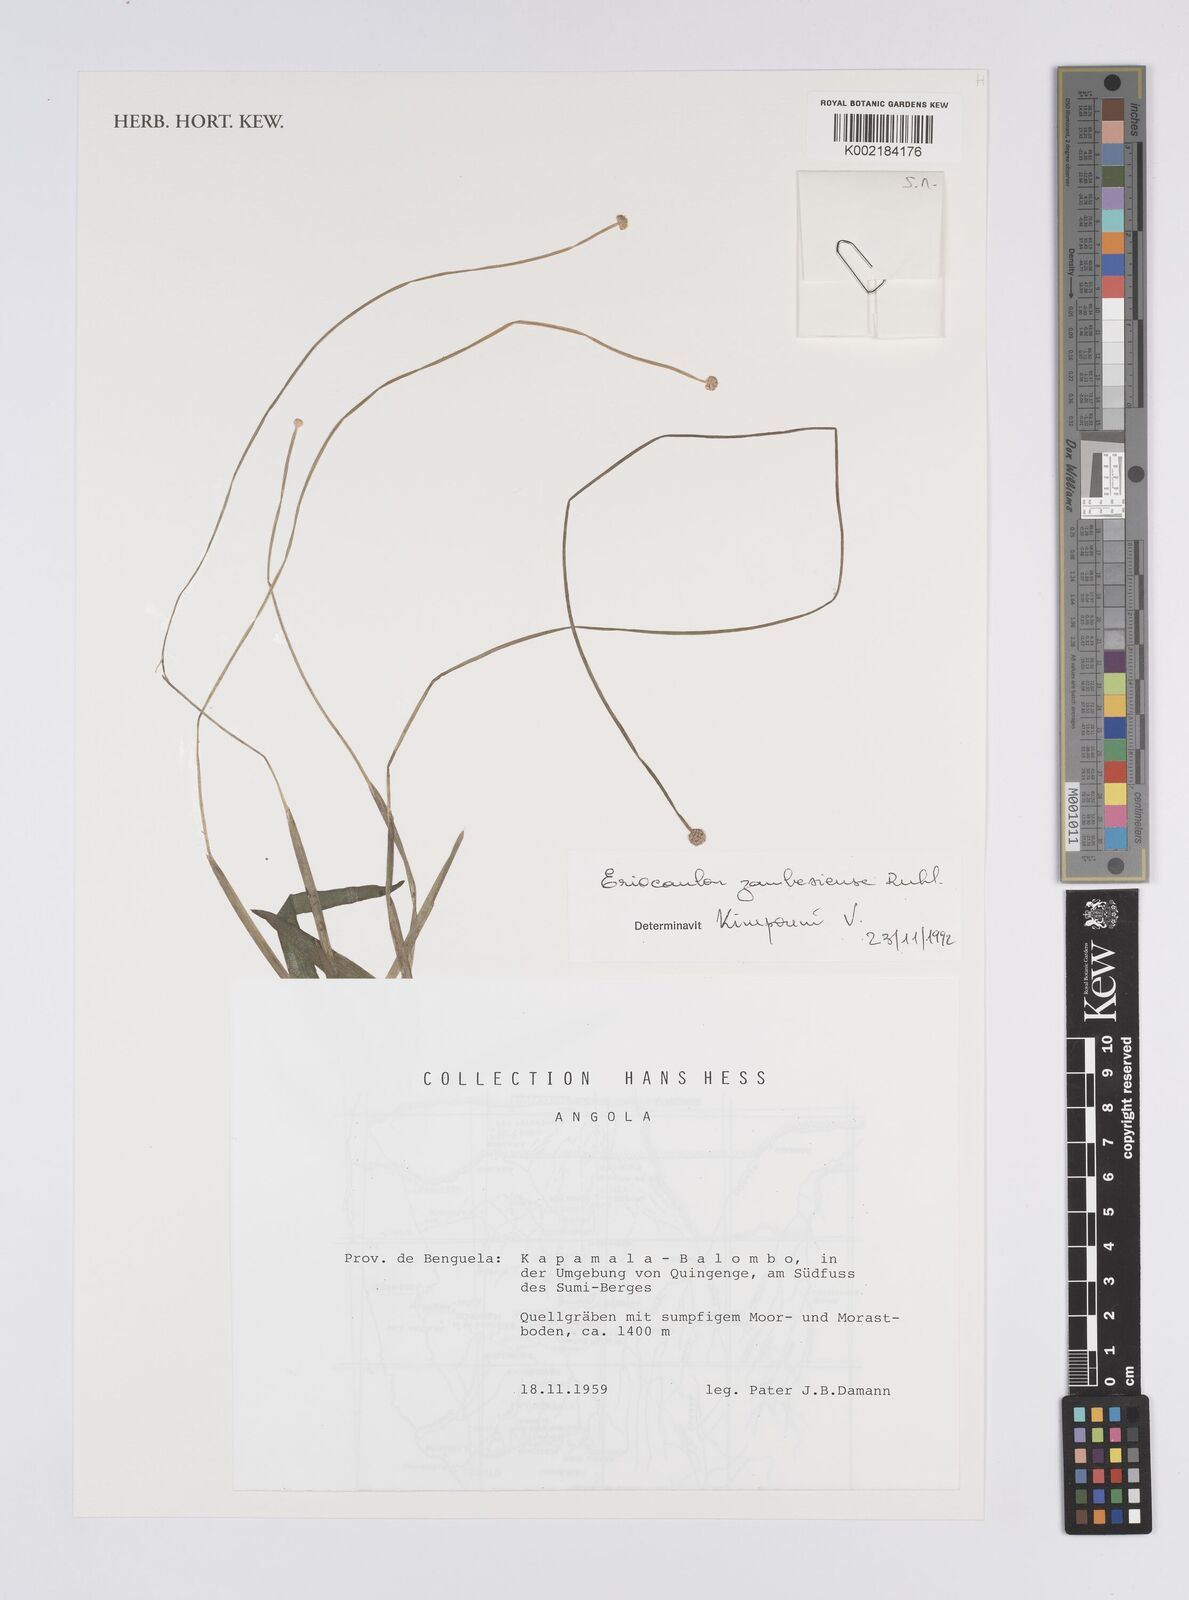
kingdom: Plantae
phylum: Tracheophyta
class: Liliopsida
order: Poales
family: Eriocaulaceae
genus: Eriocaulon
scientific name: Eriocaulon zambesiense
